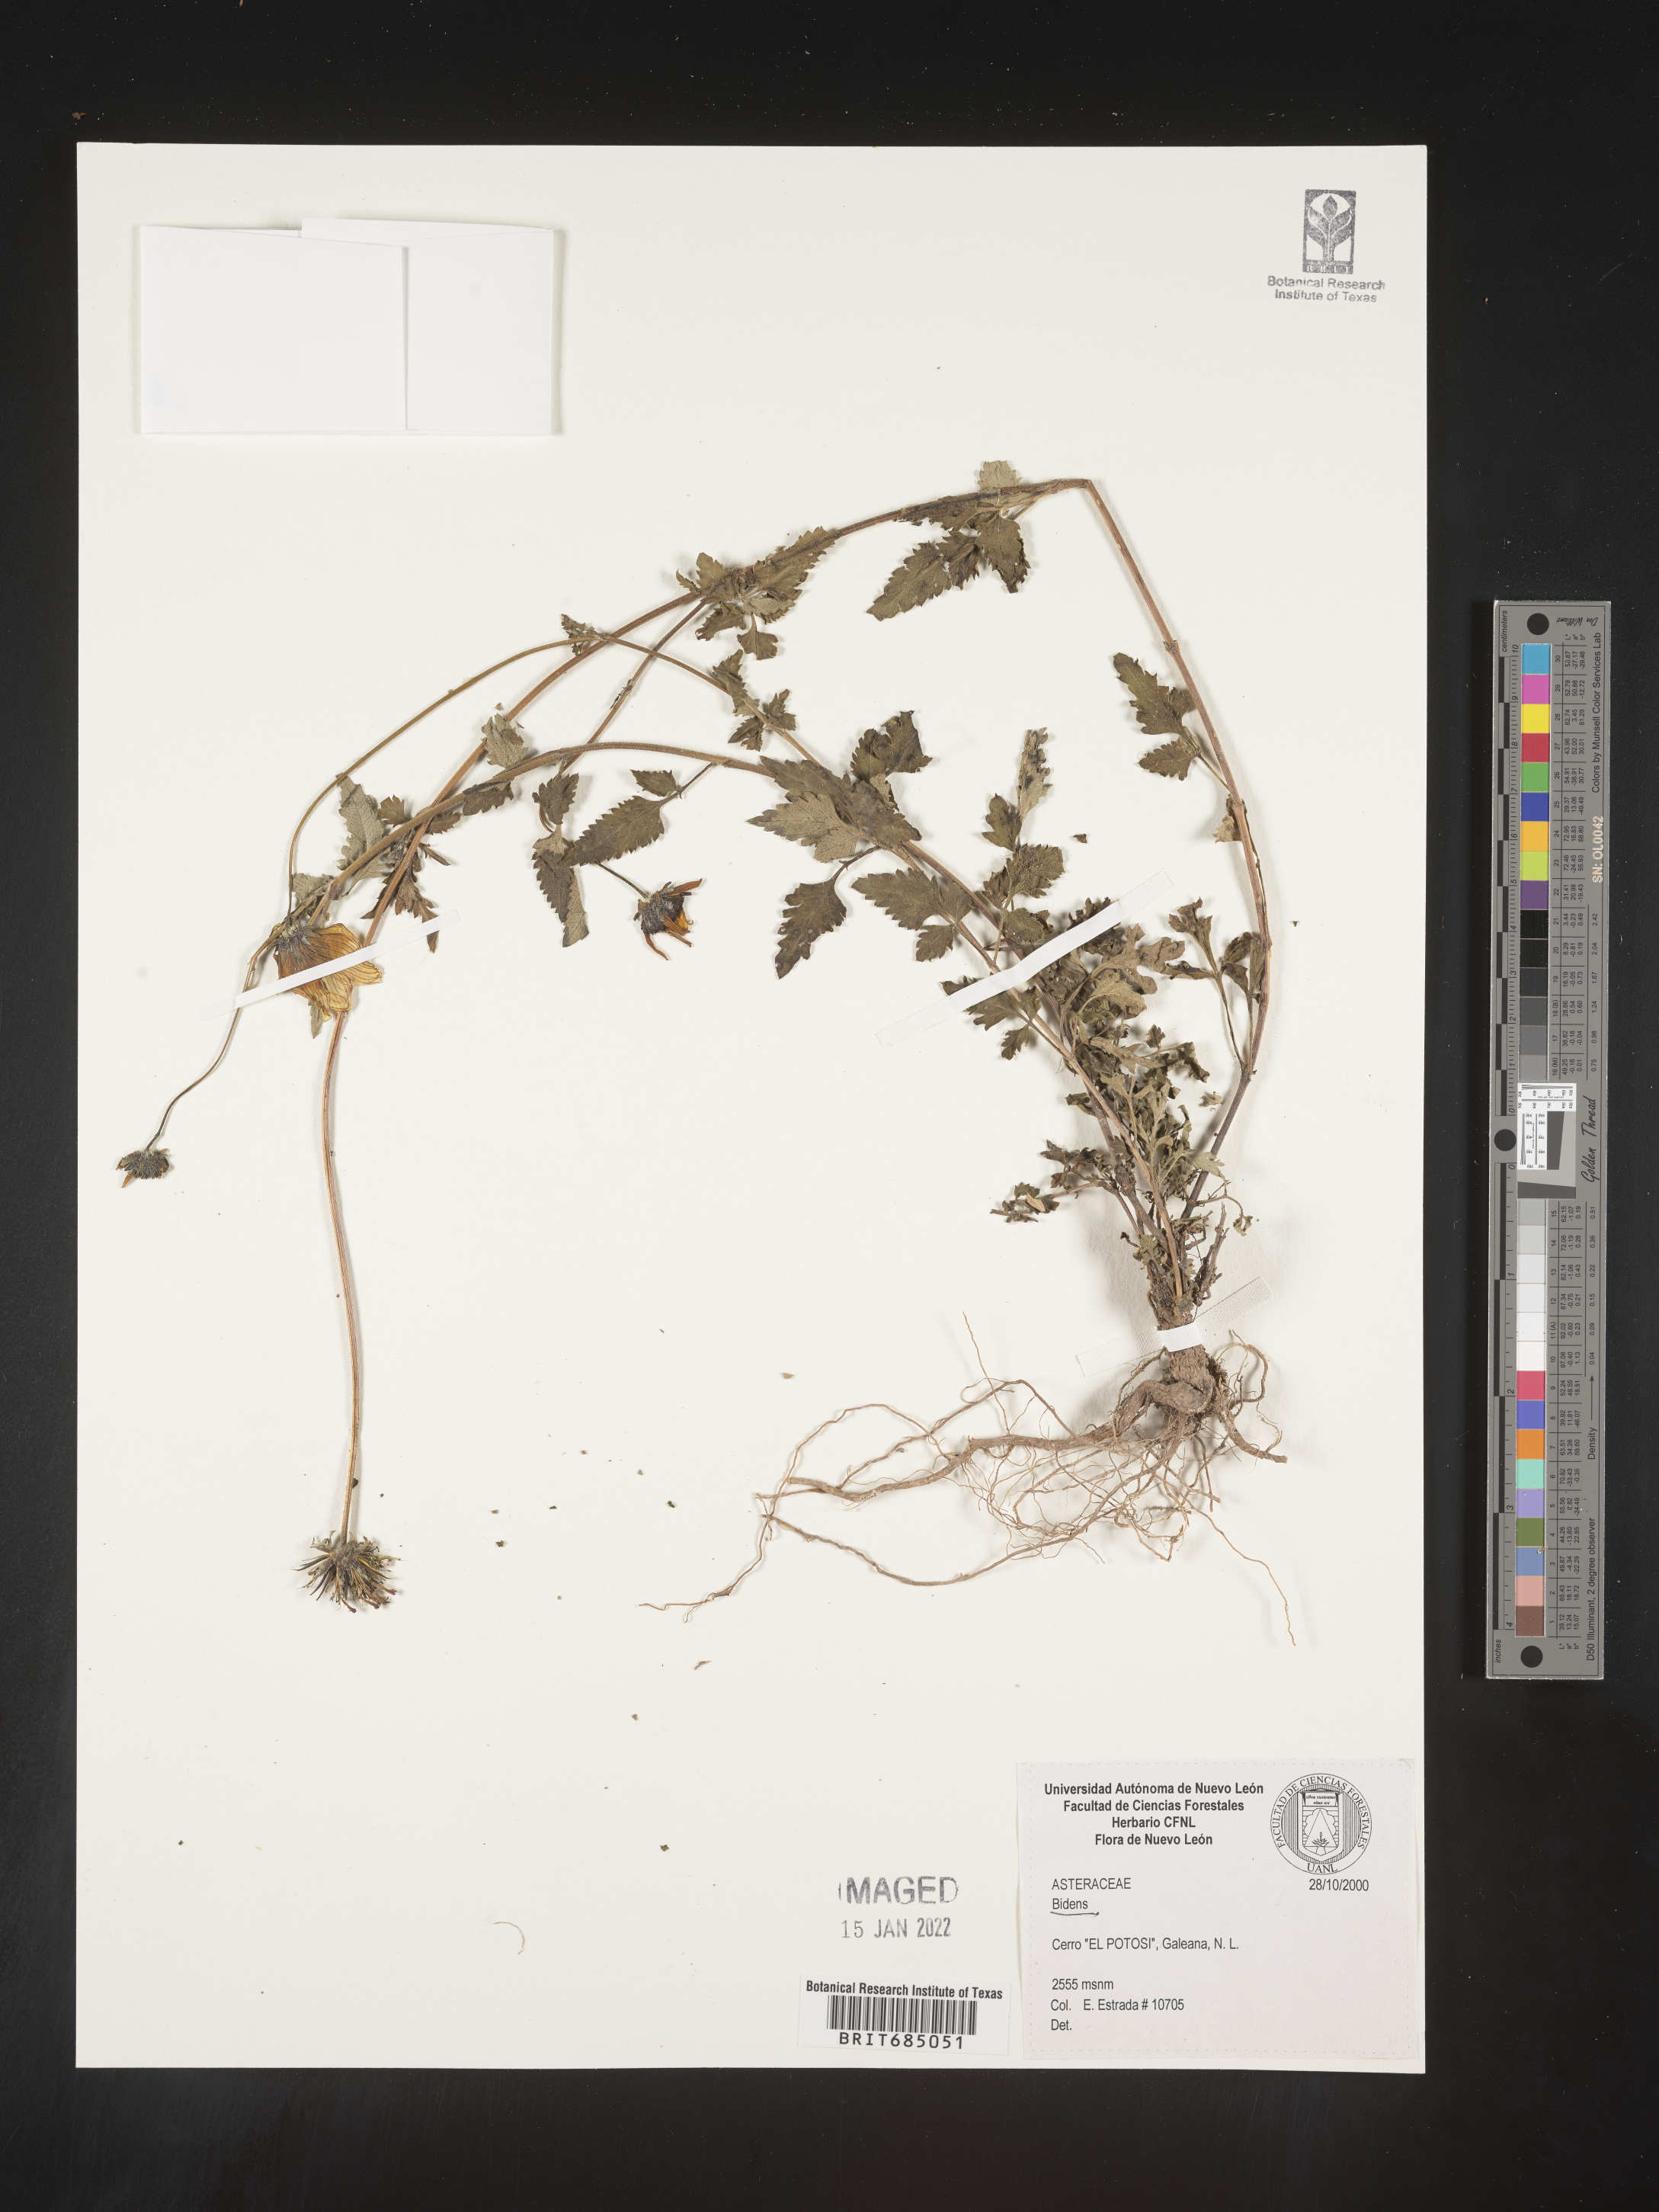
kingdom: Plantae
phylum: Tracheophyta
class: Magnoliopsida
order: Asterales
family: Asteraceae
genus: Bidens
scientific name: Bidens
